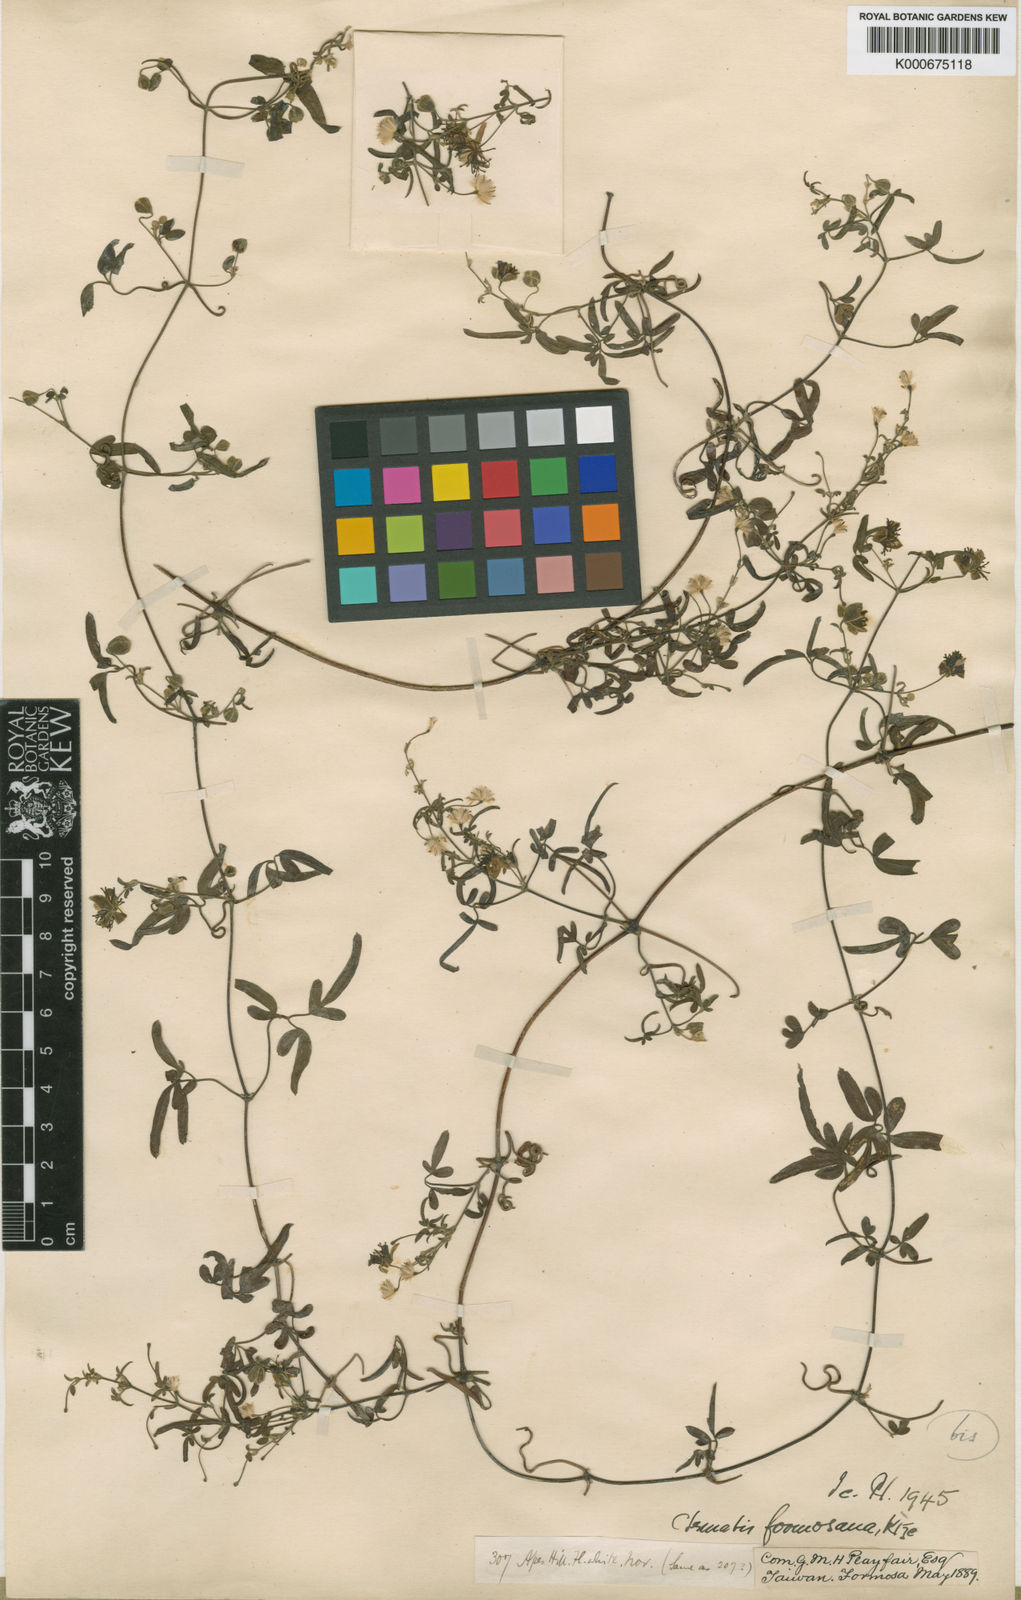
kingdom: Plantae
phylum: Tracheophyta
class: Magnoliopsida
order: Ranunculales
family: Ranunculaceae
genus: Clematis
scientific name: Clematis formosana
